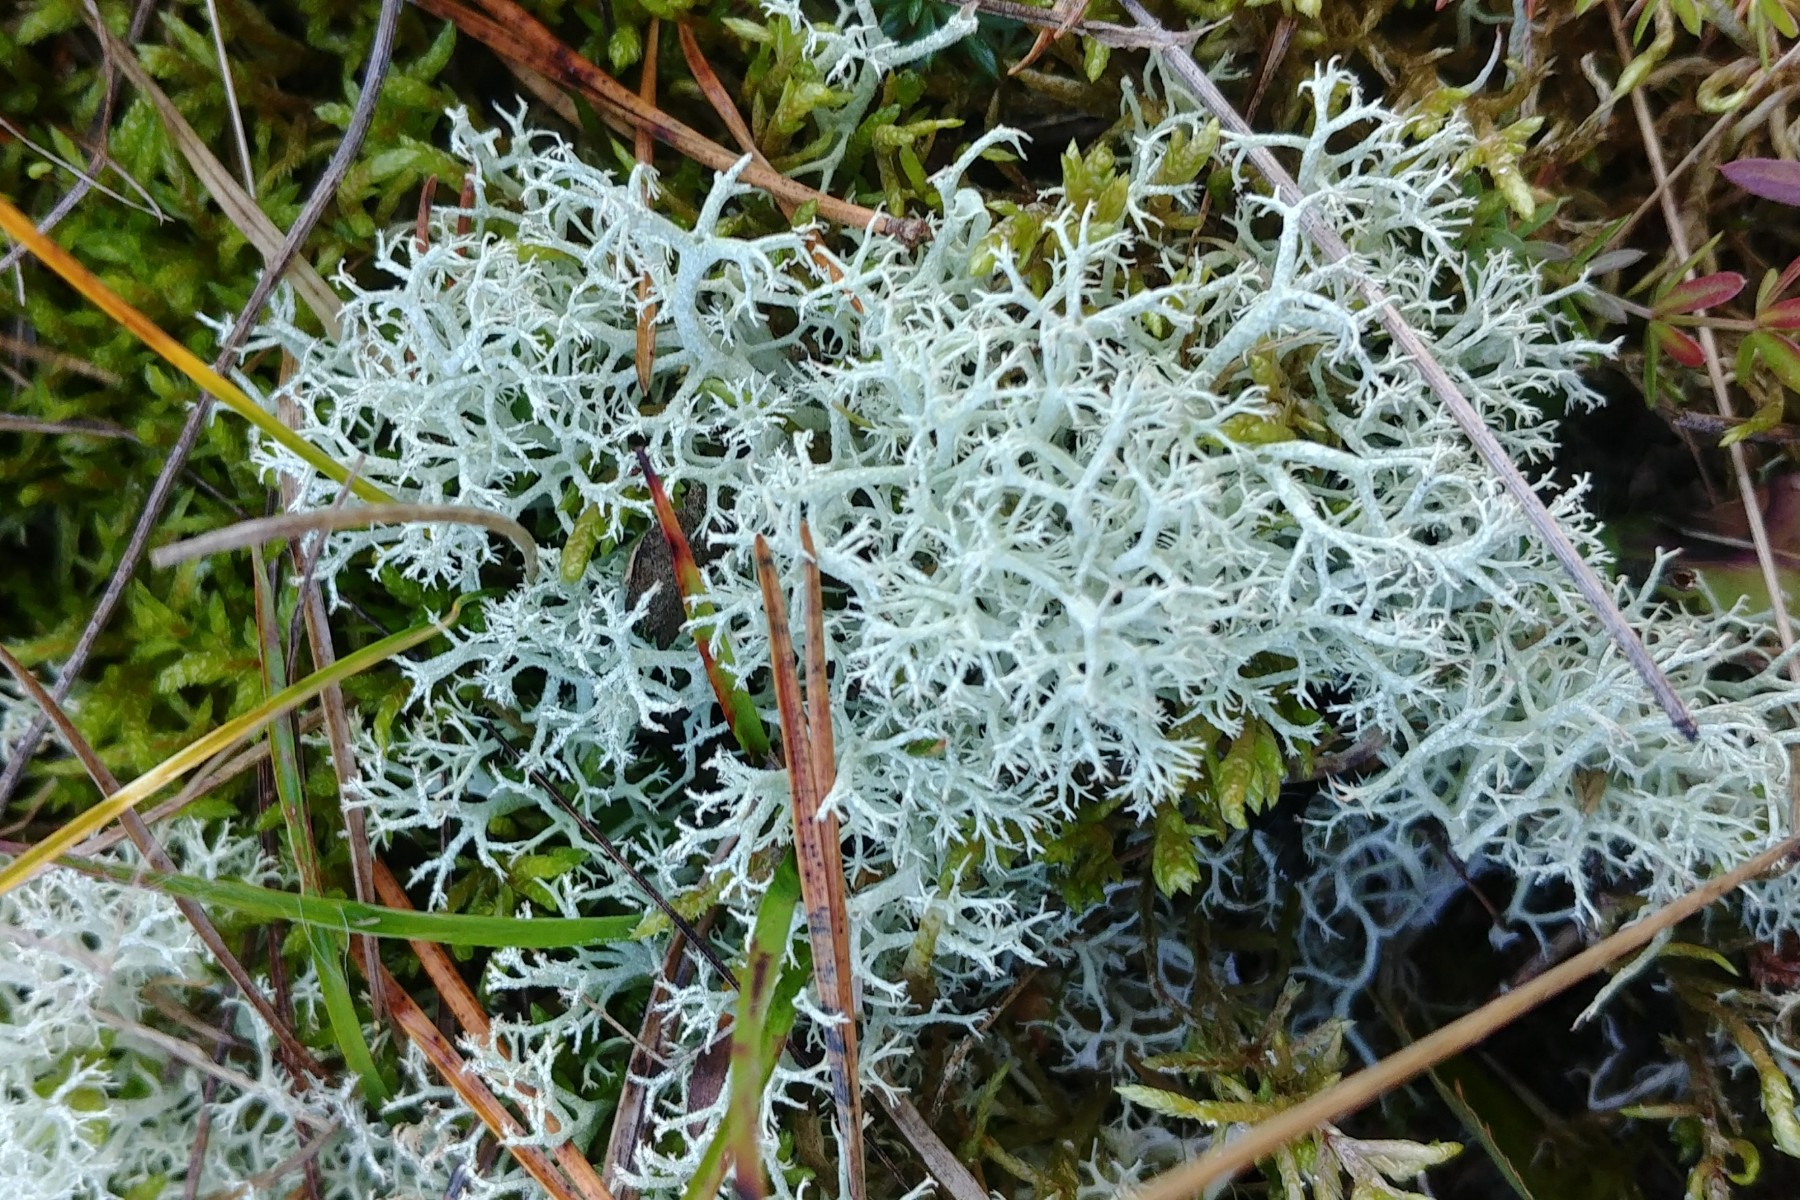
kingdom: Fungi
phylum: Ascomycota
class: Lecanoromycetes
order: Lecanorales
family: Cladoniaceae
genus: Cladonia
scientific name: Cladonia portentosa
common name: hede-rensdyrlav
